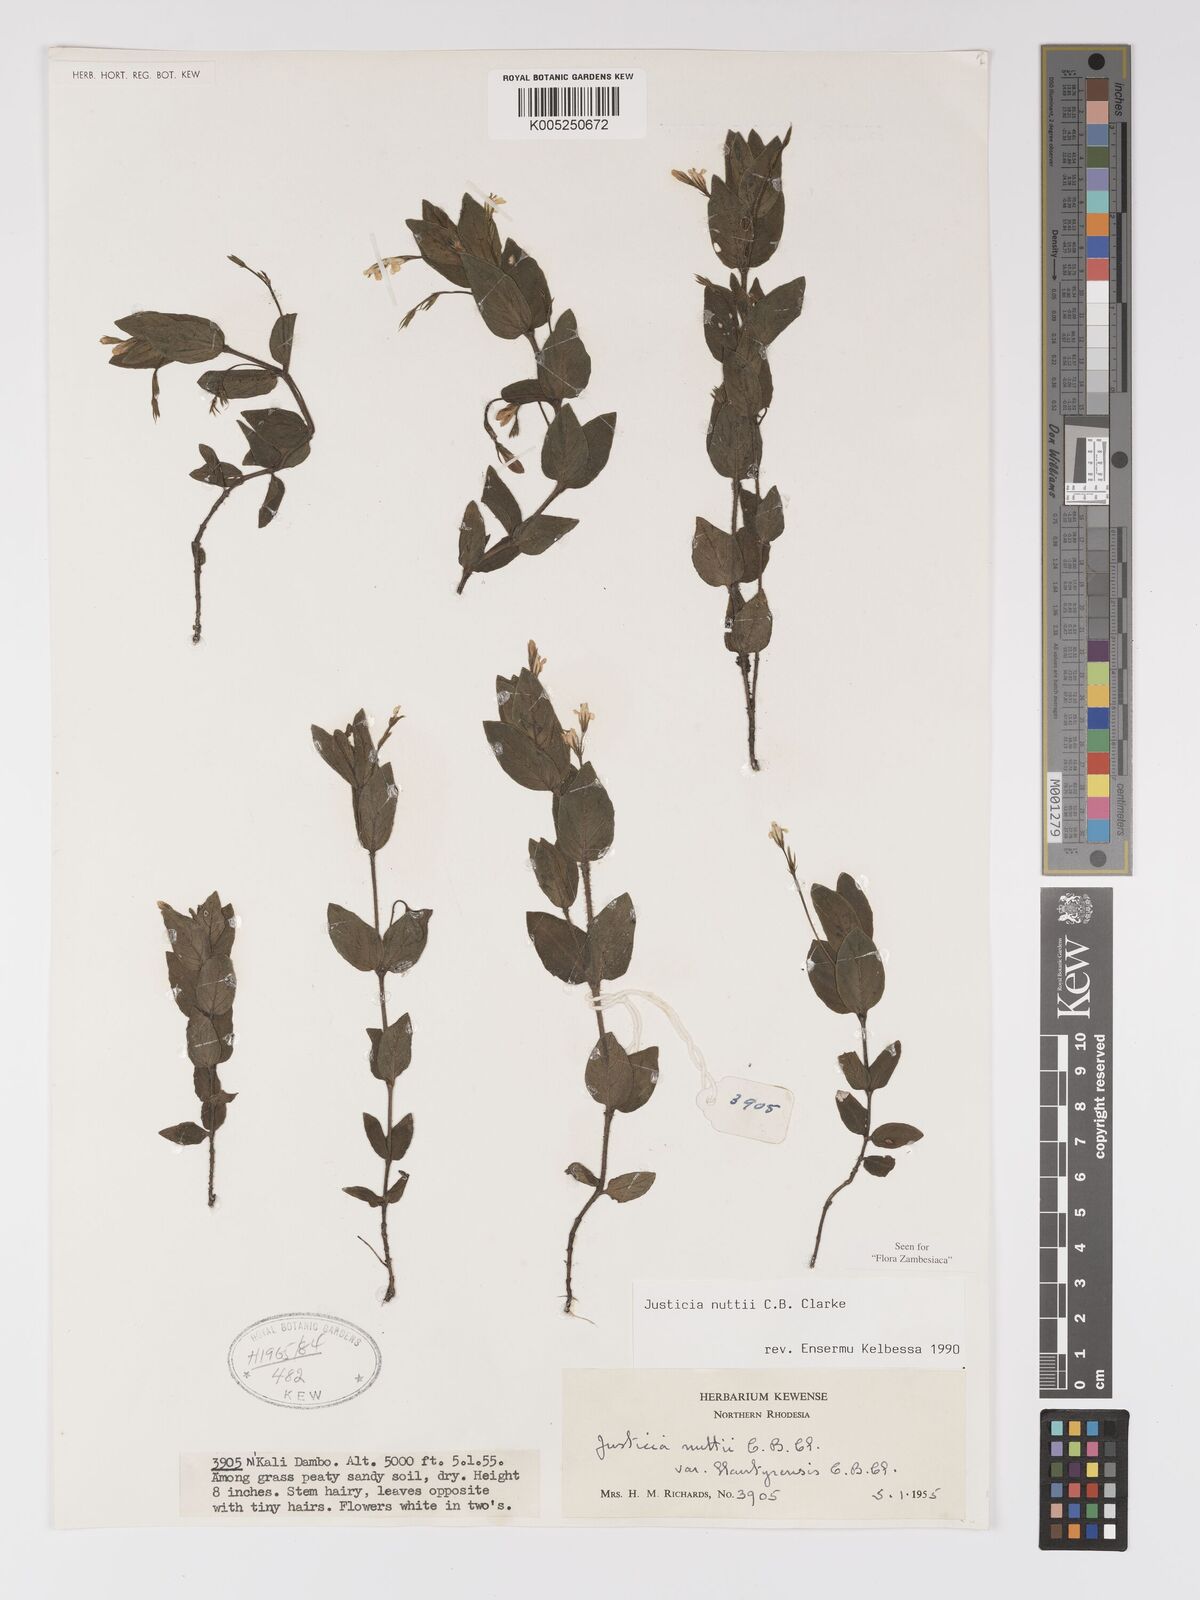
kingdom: Plantae
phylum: Tracheophyta
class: Magnoliopsida
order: Lamiales
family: Acanthaceae
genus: Justicia
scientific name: Justicia nuttii
